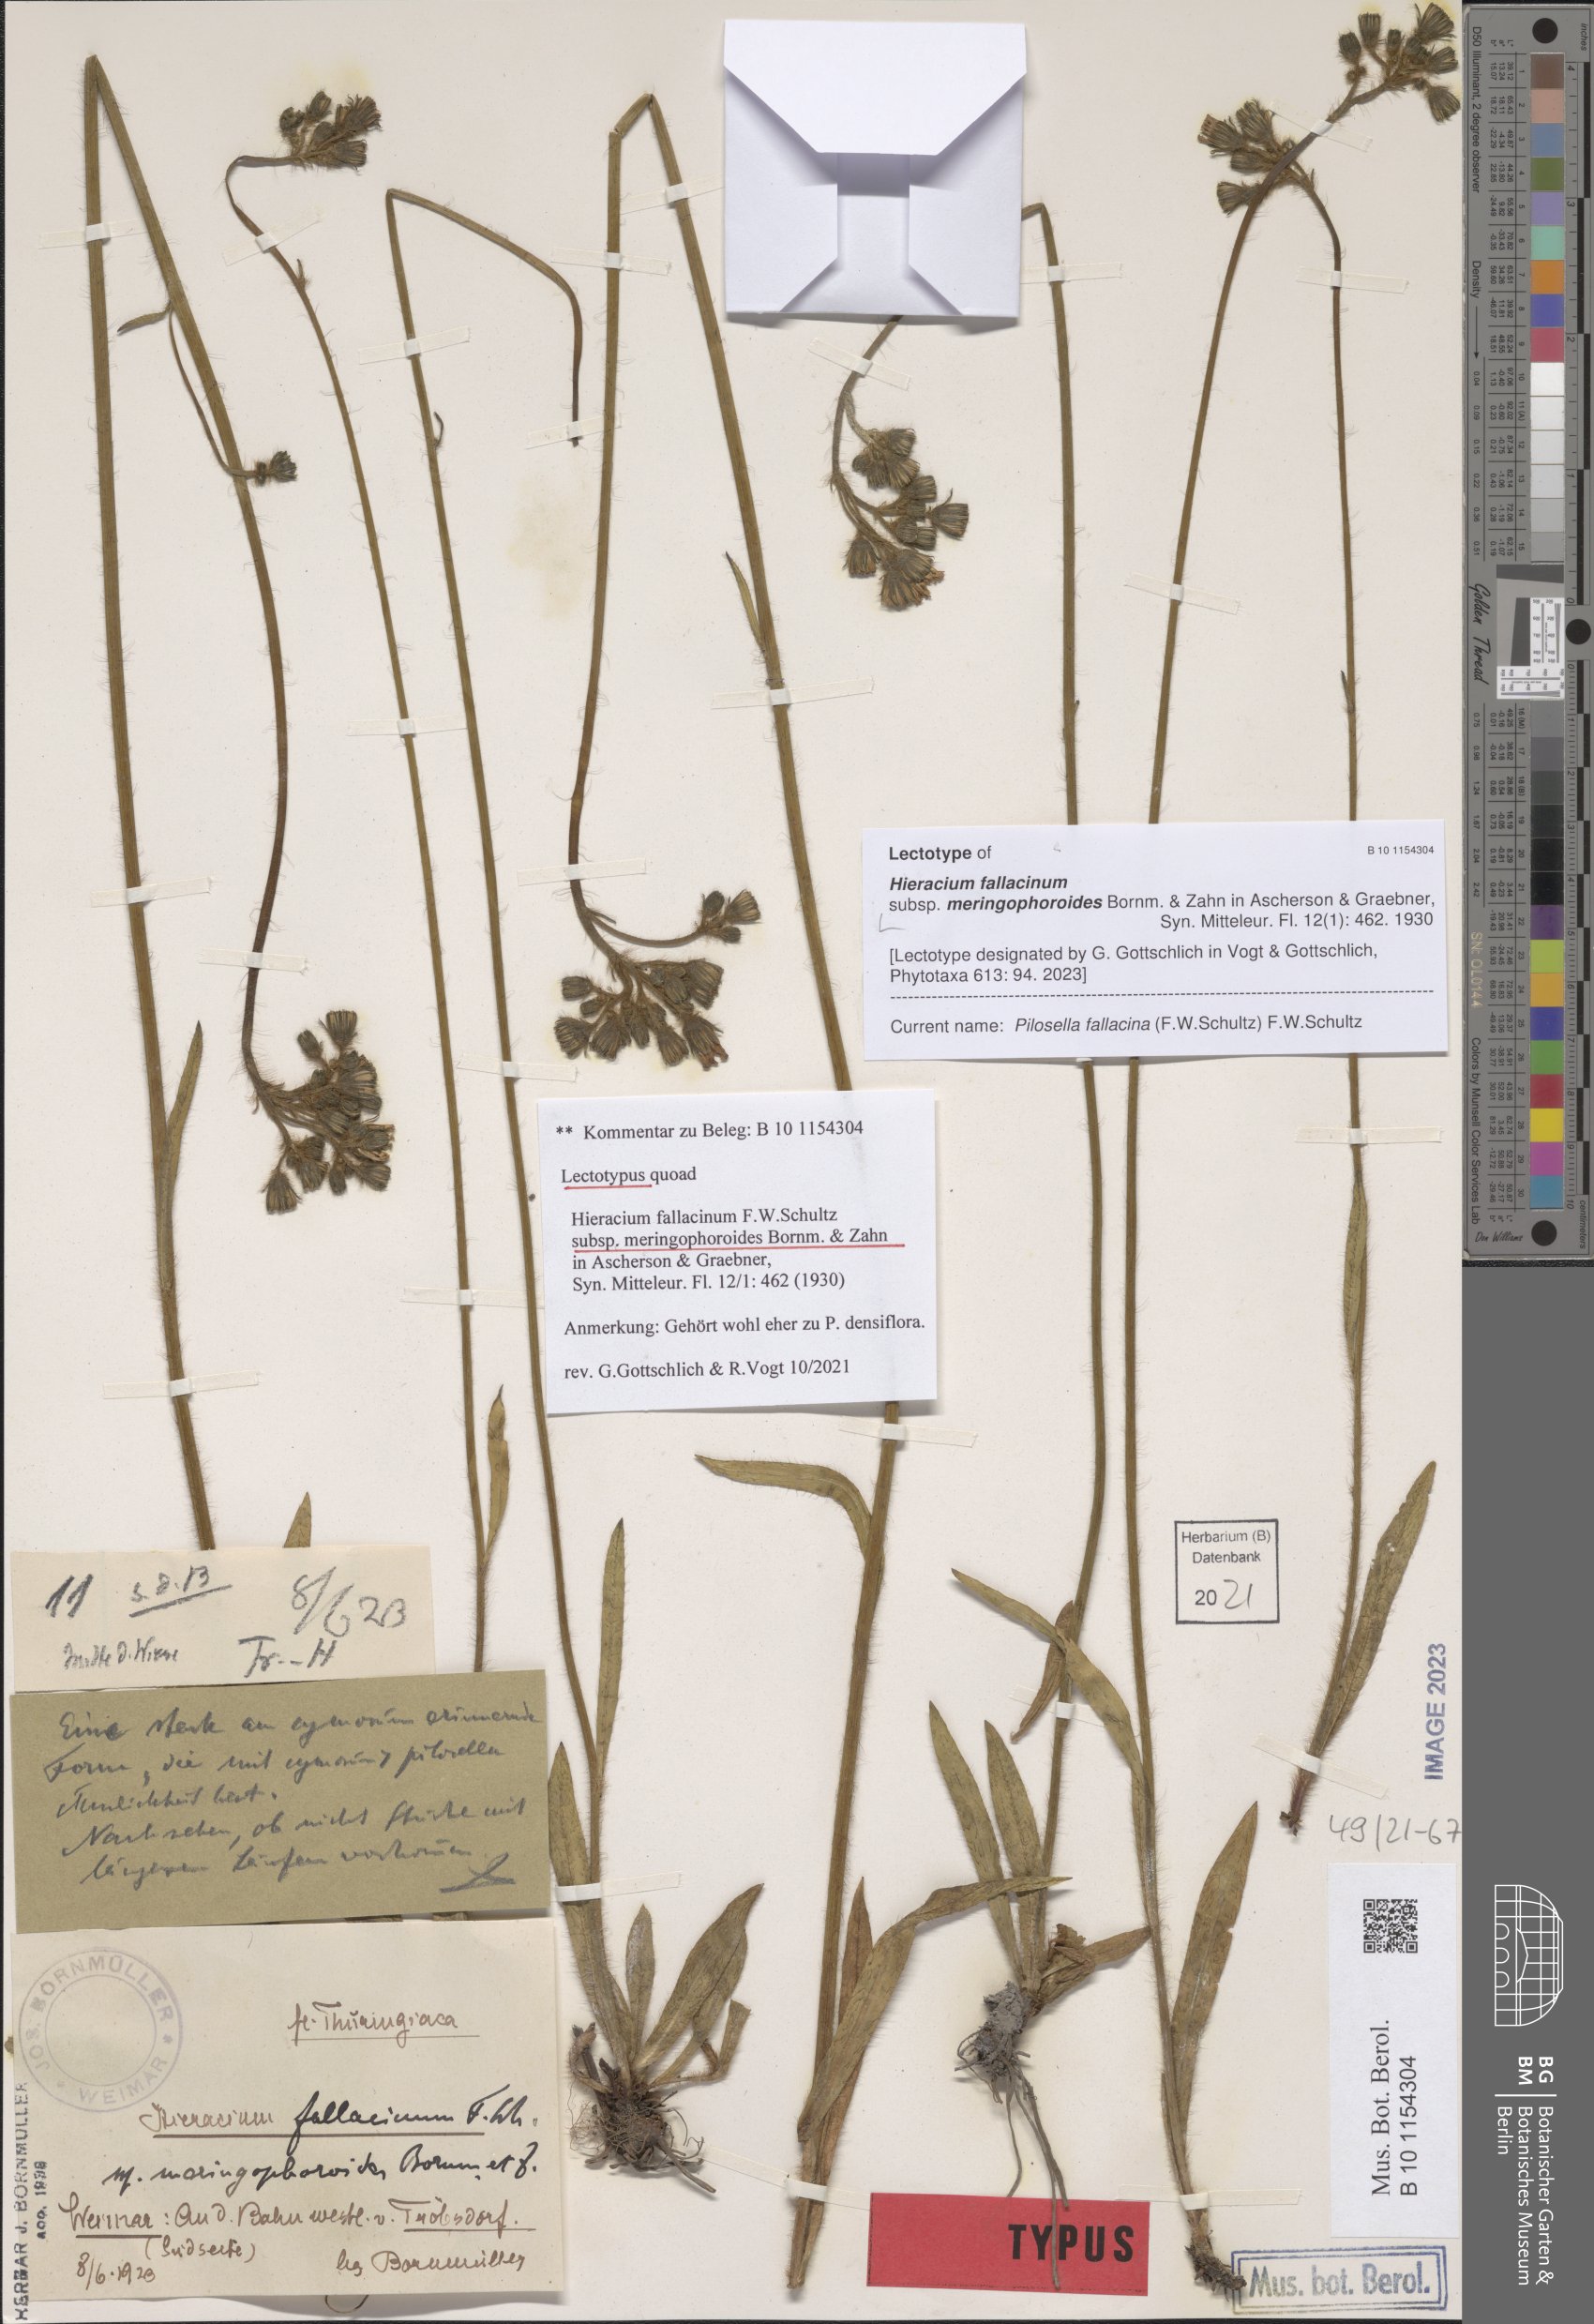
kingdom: Plantae
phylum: Tracheophyta
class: Magnoliopsida
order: Asterales
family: Asteraceae
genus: Pilosella
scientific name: Pilosella fallacina
